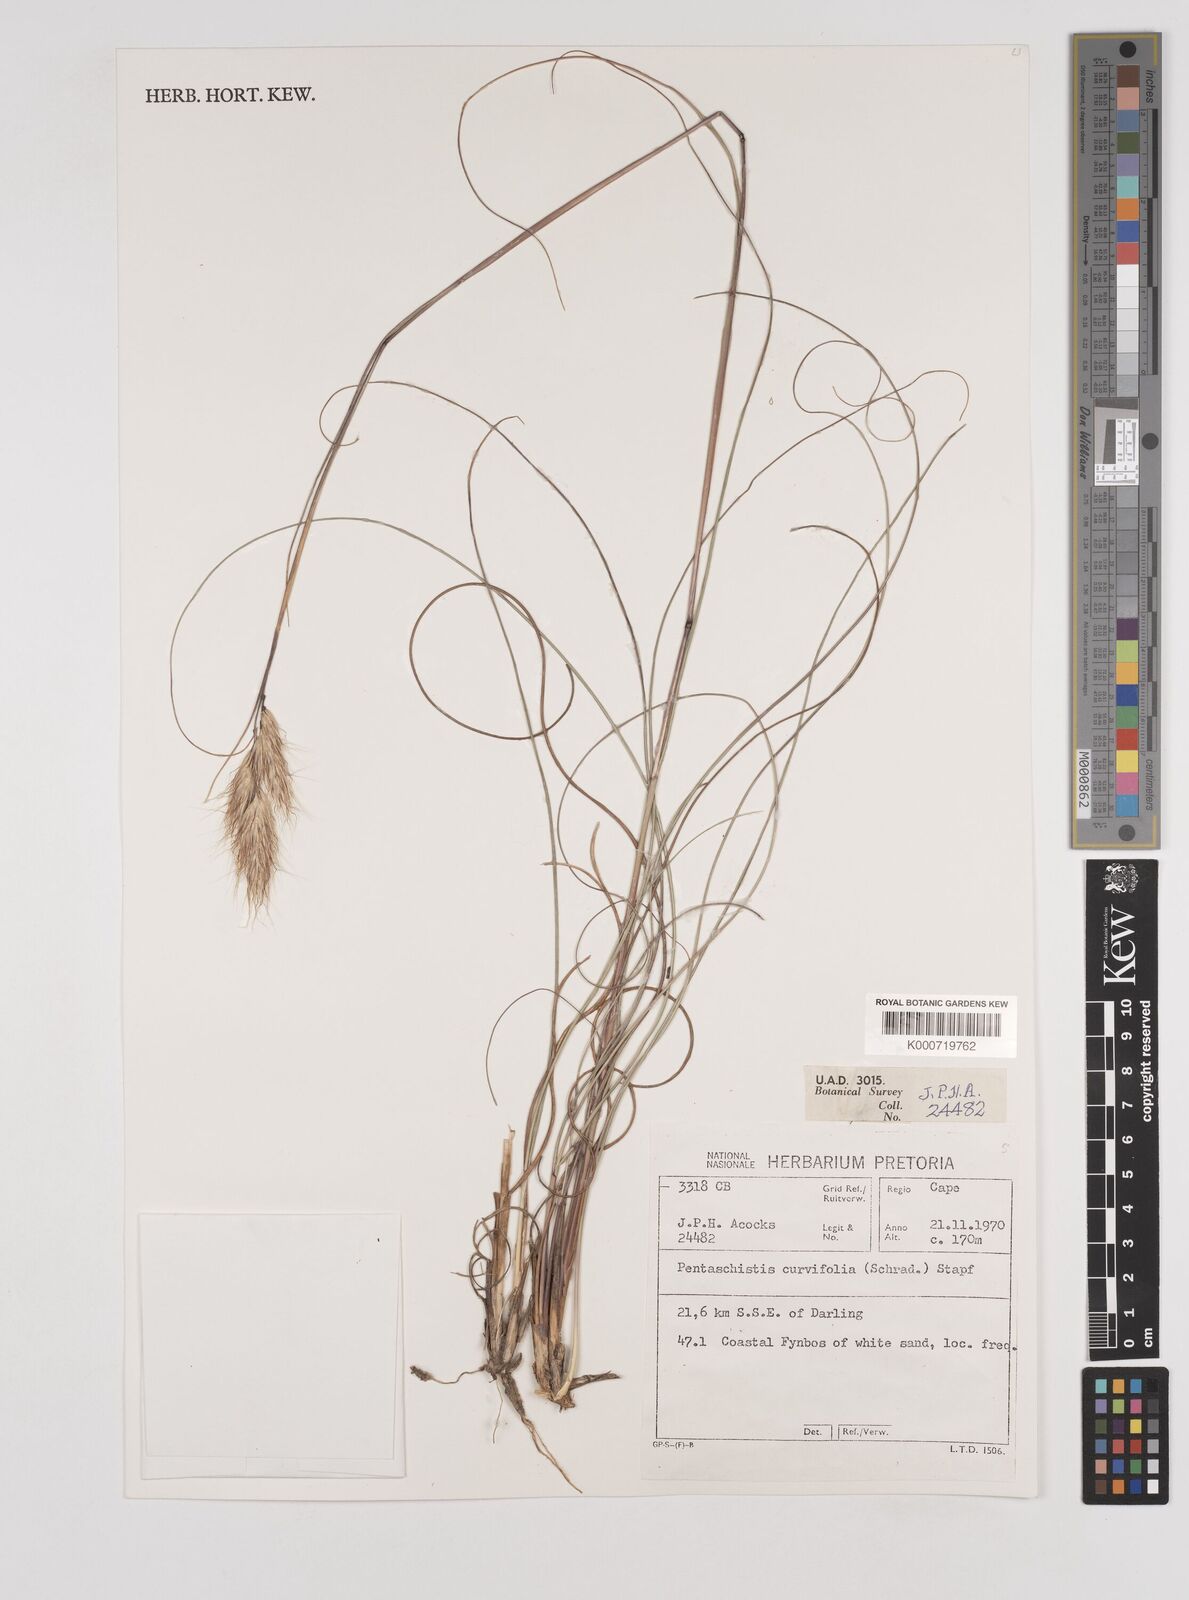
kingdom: Plantae
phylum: Tracheophyta
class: Liliopsida
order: Poales
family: Poaceae
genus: Pentameris
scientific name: Pentameris curvifolia
